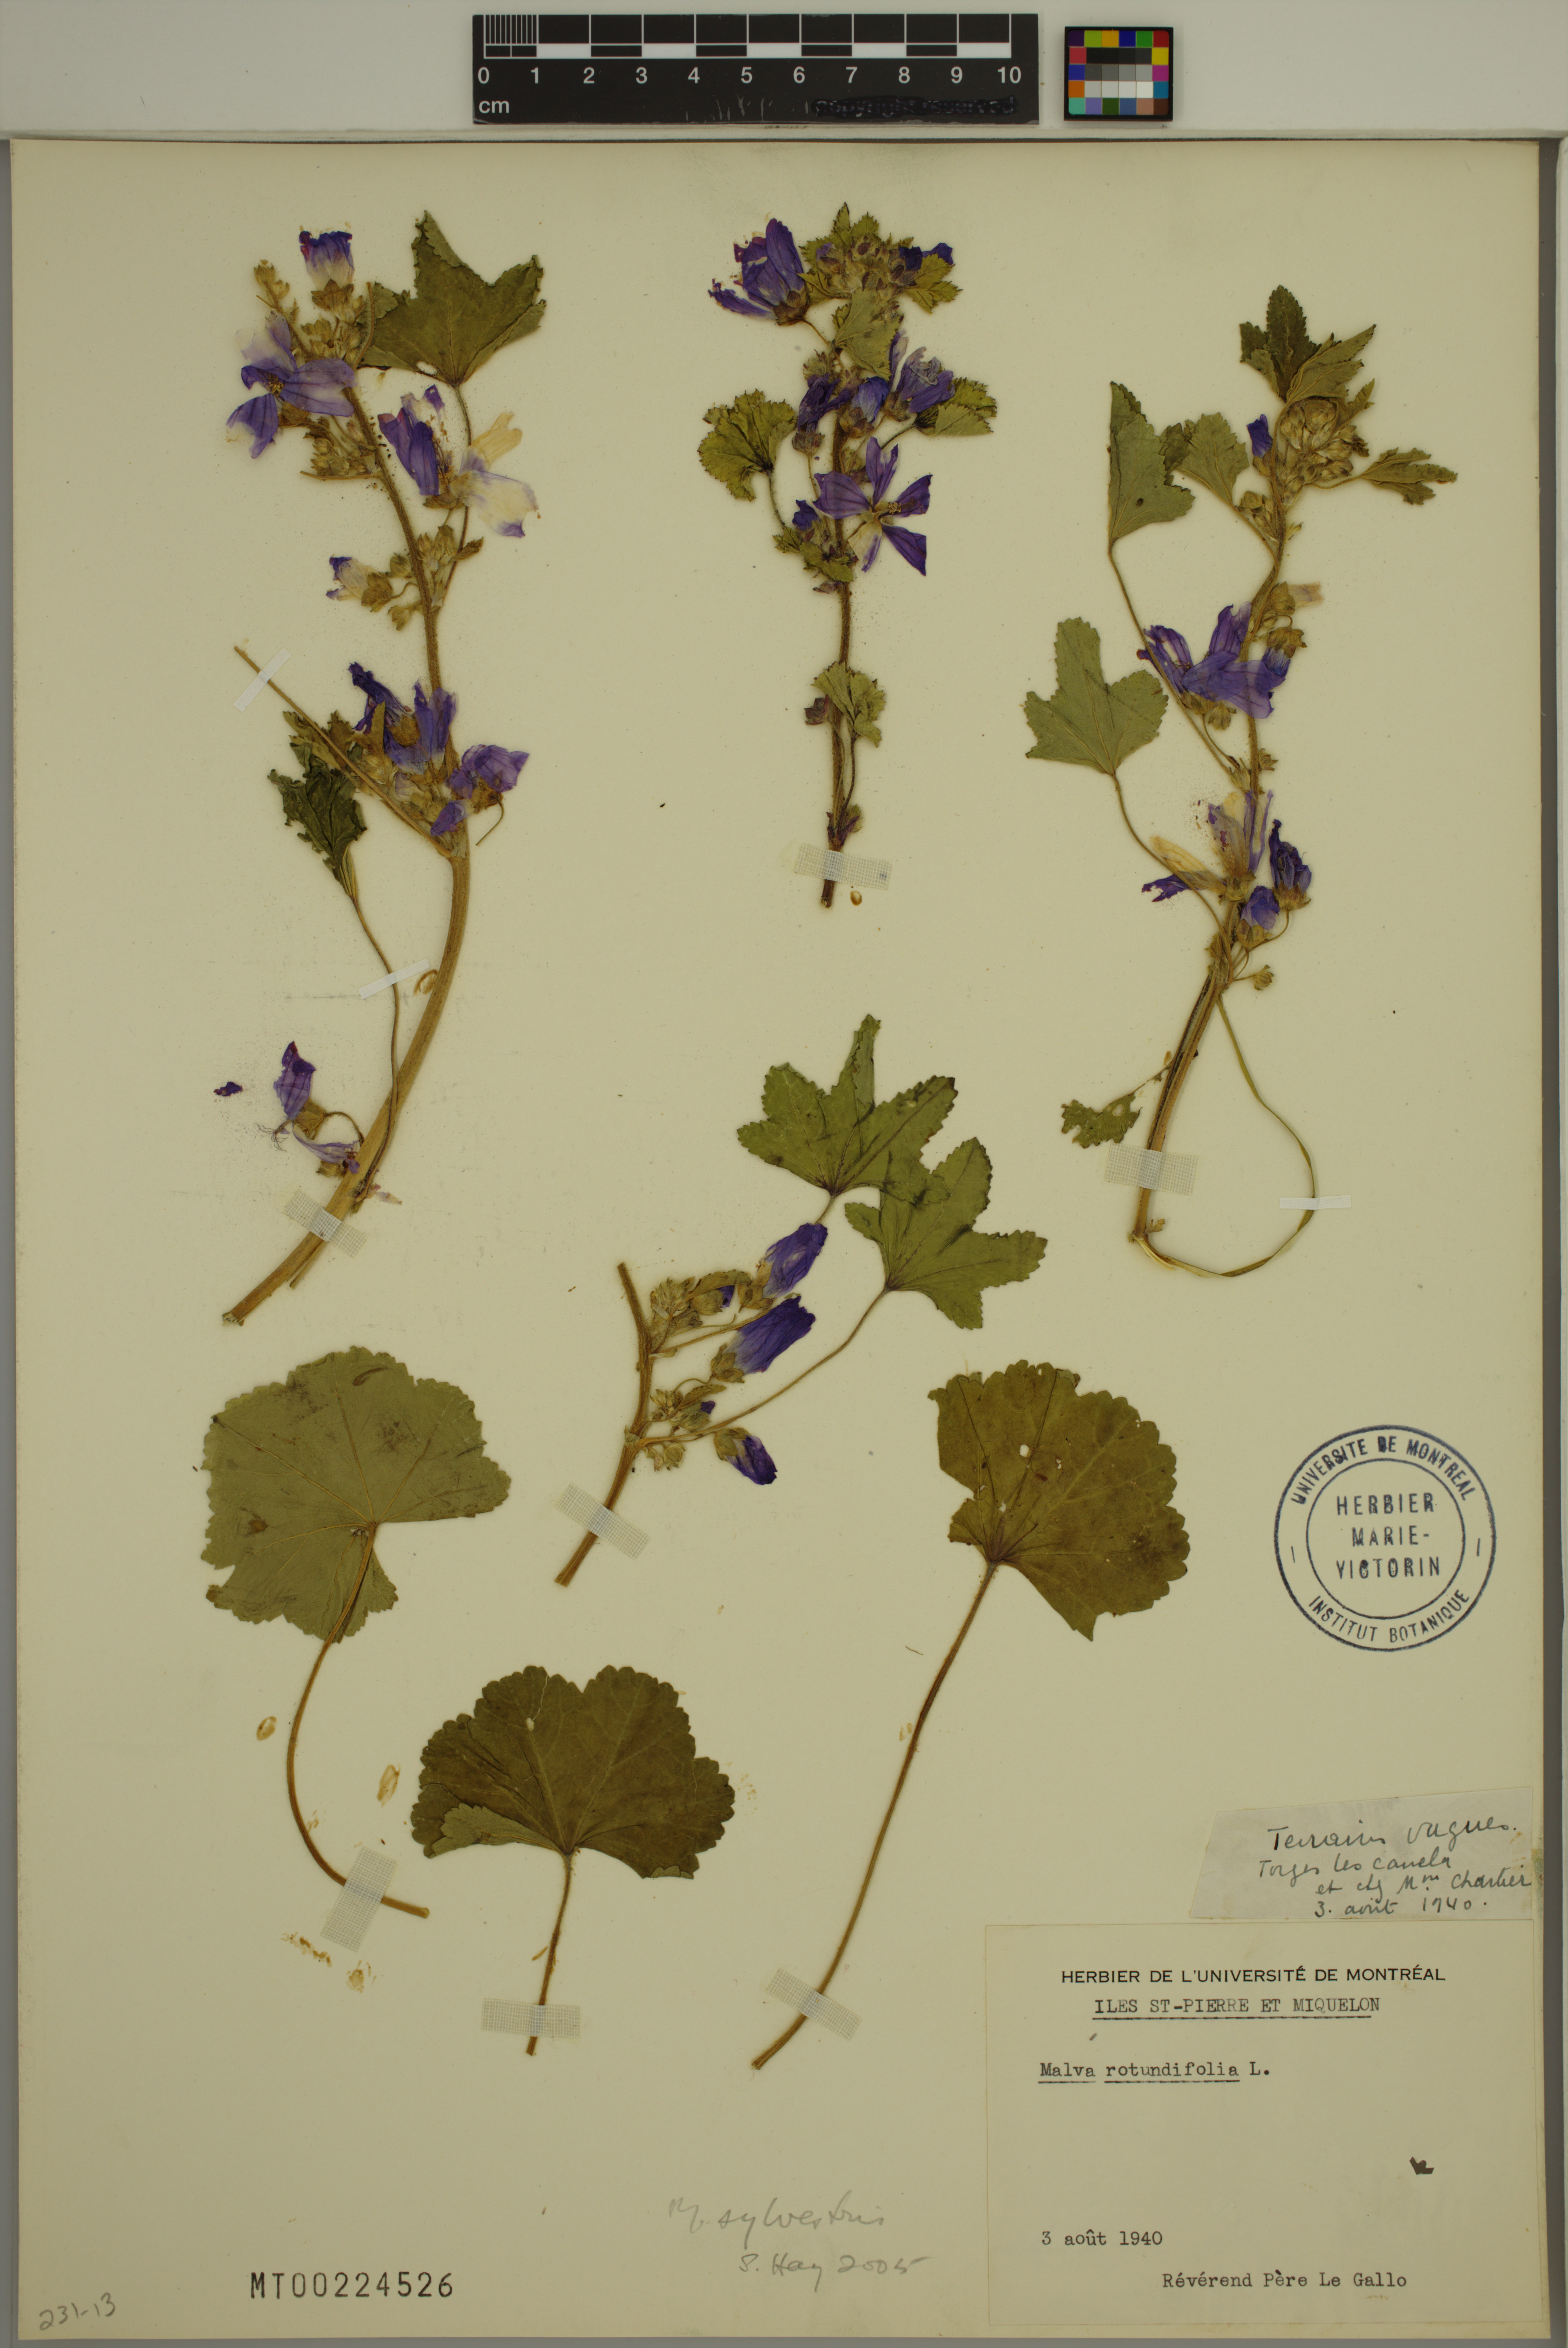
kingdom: Plantae
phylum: Tracheophyta
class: Magnoliopsida
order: Malvales
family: Malvaceae
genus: Malva
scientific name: Malva sylvestris
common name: Common mallow
